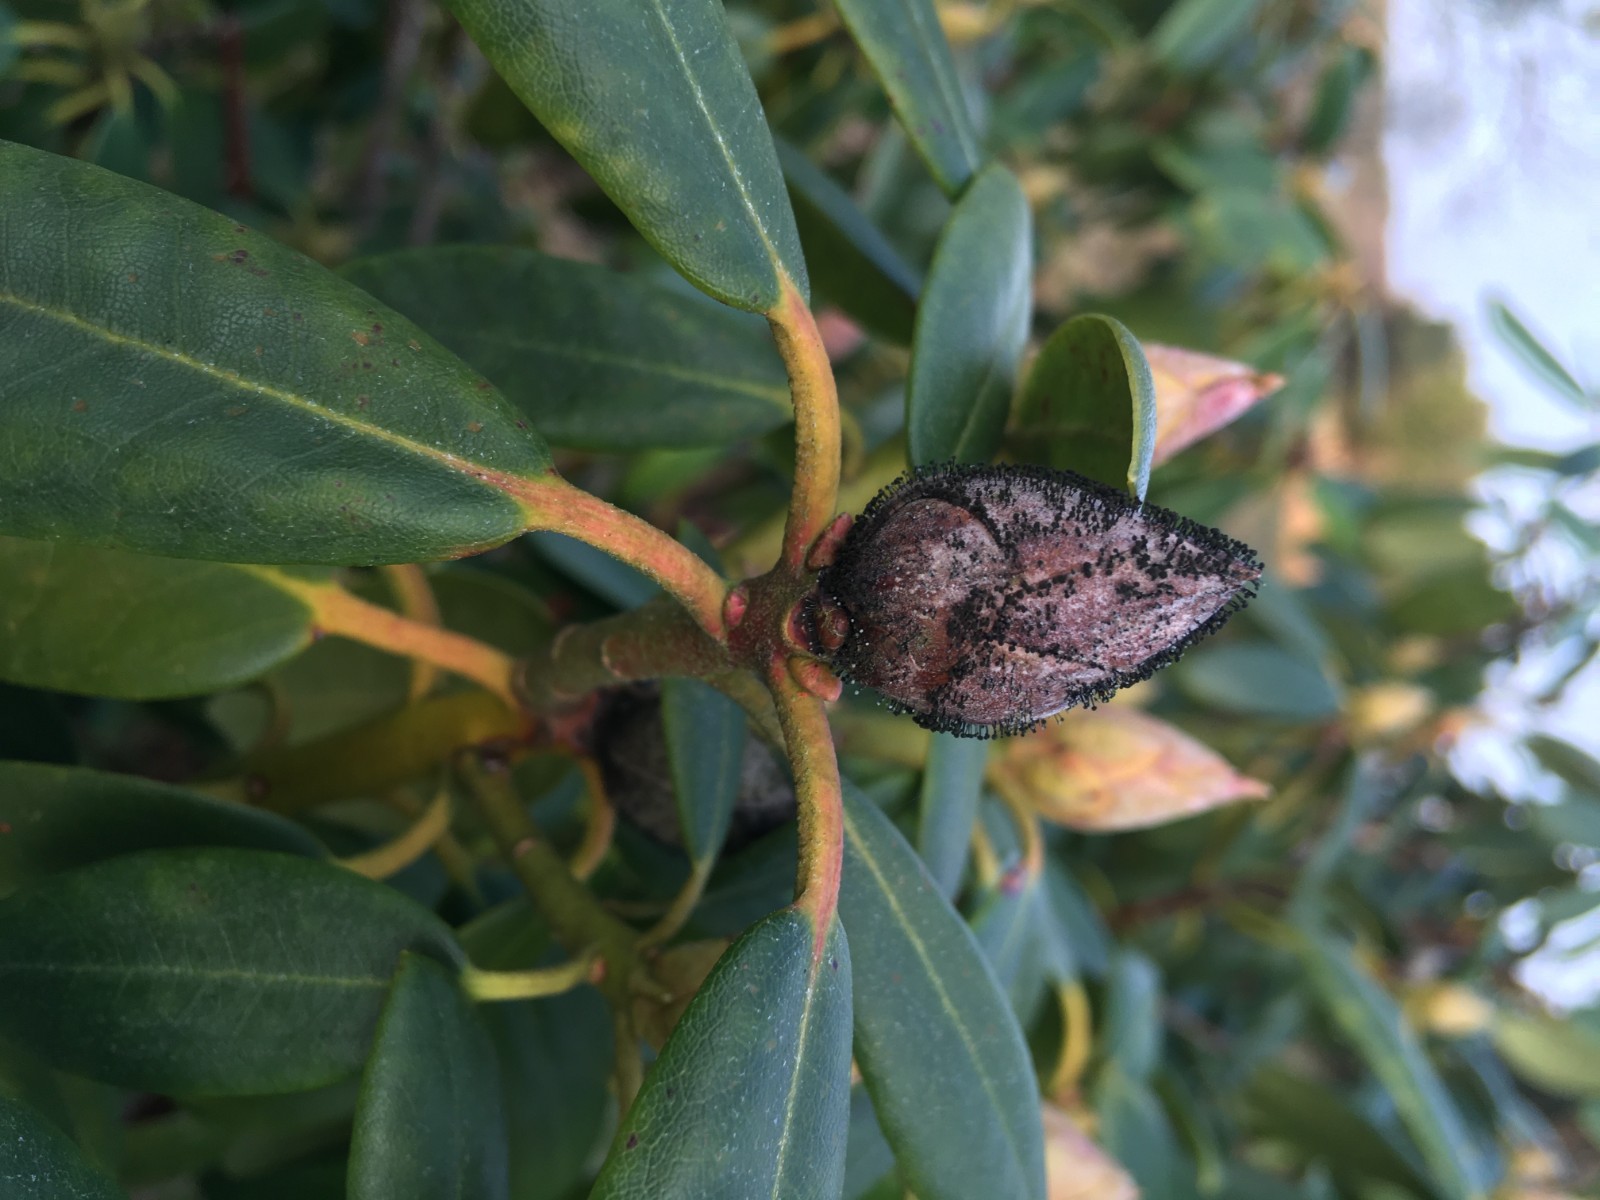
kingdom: Fungi
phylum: Ascomycota
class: Dothideomycetes
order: Pleosporales
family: Melanommataceae
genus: Seifertia
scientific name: Seifertia azaleae
